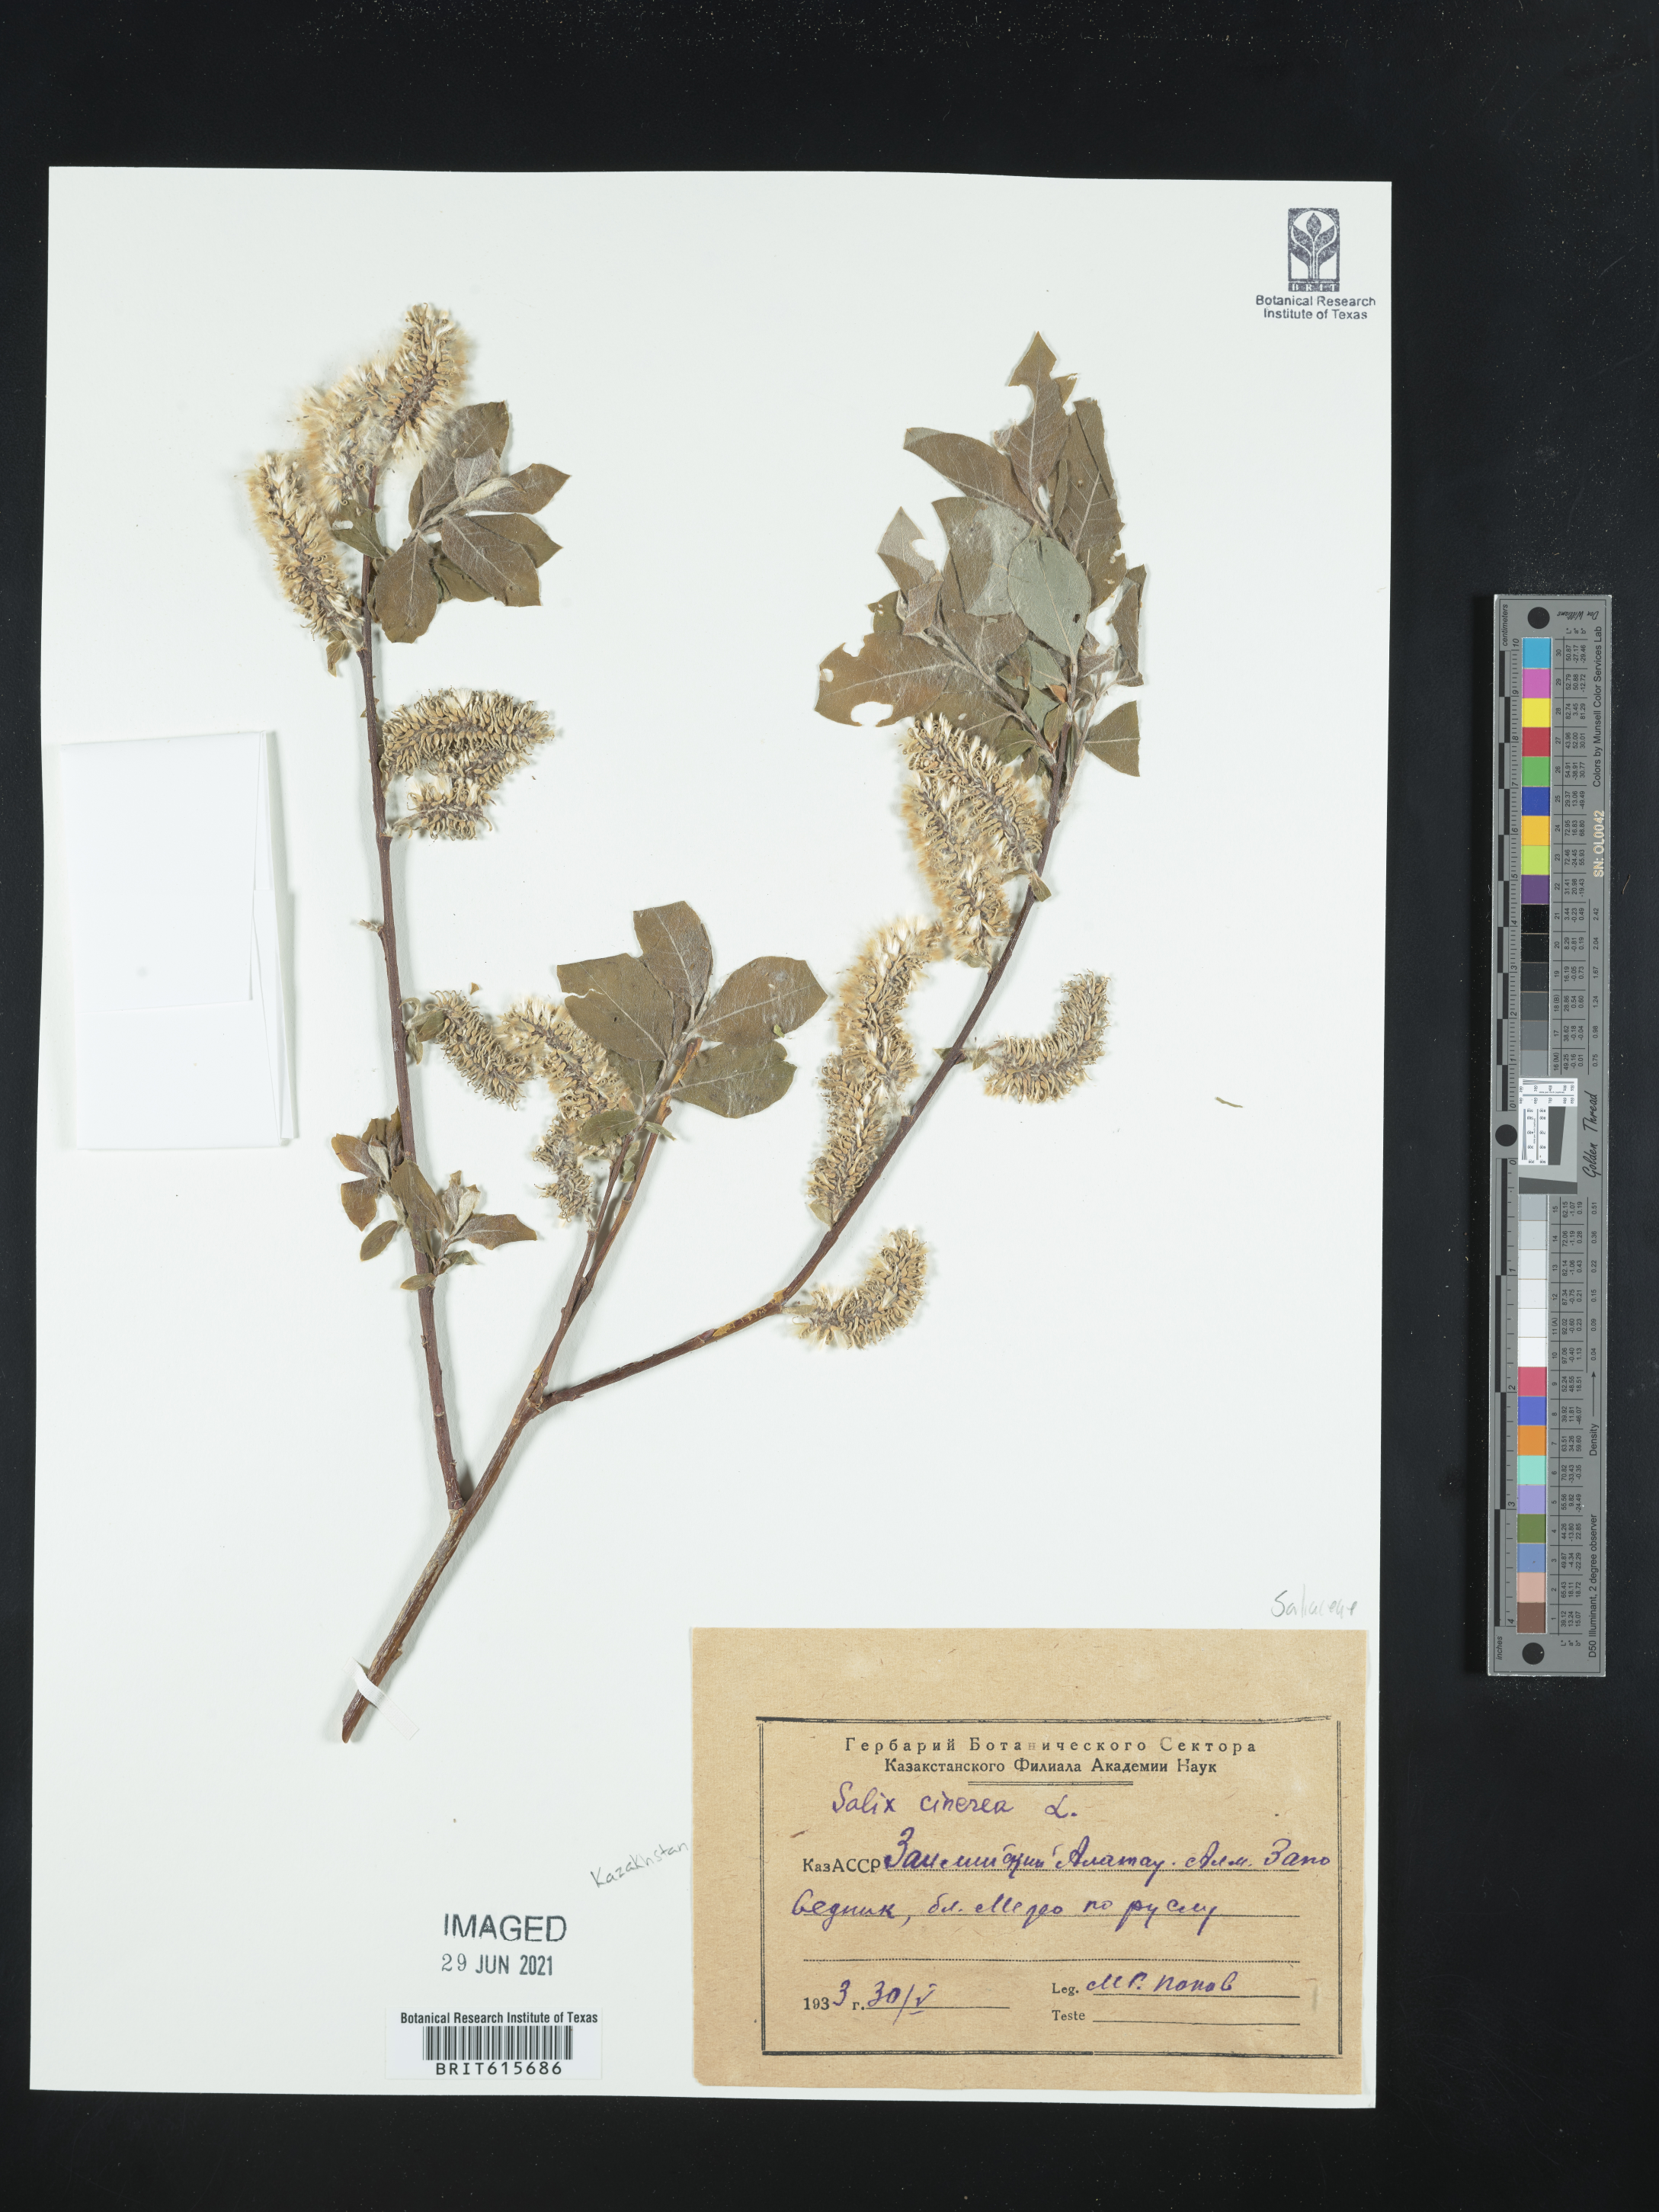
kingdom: Plantae
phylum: Tracheophyta
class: Magnoliopsida
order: Malpighiales
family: Salicaceae
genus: Salix
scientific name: Salix cinerea
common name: Common sallow
